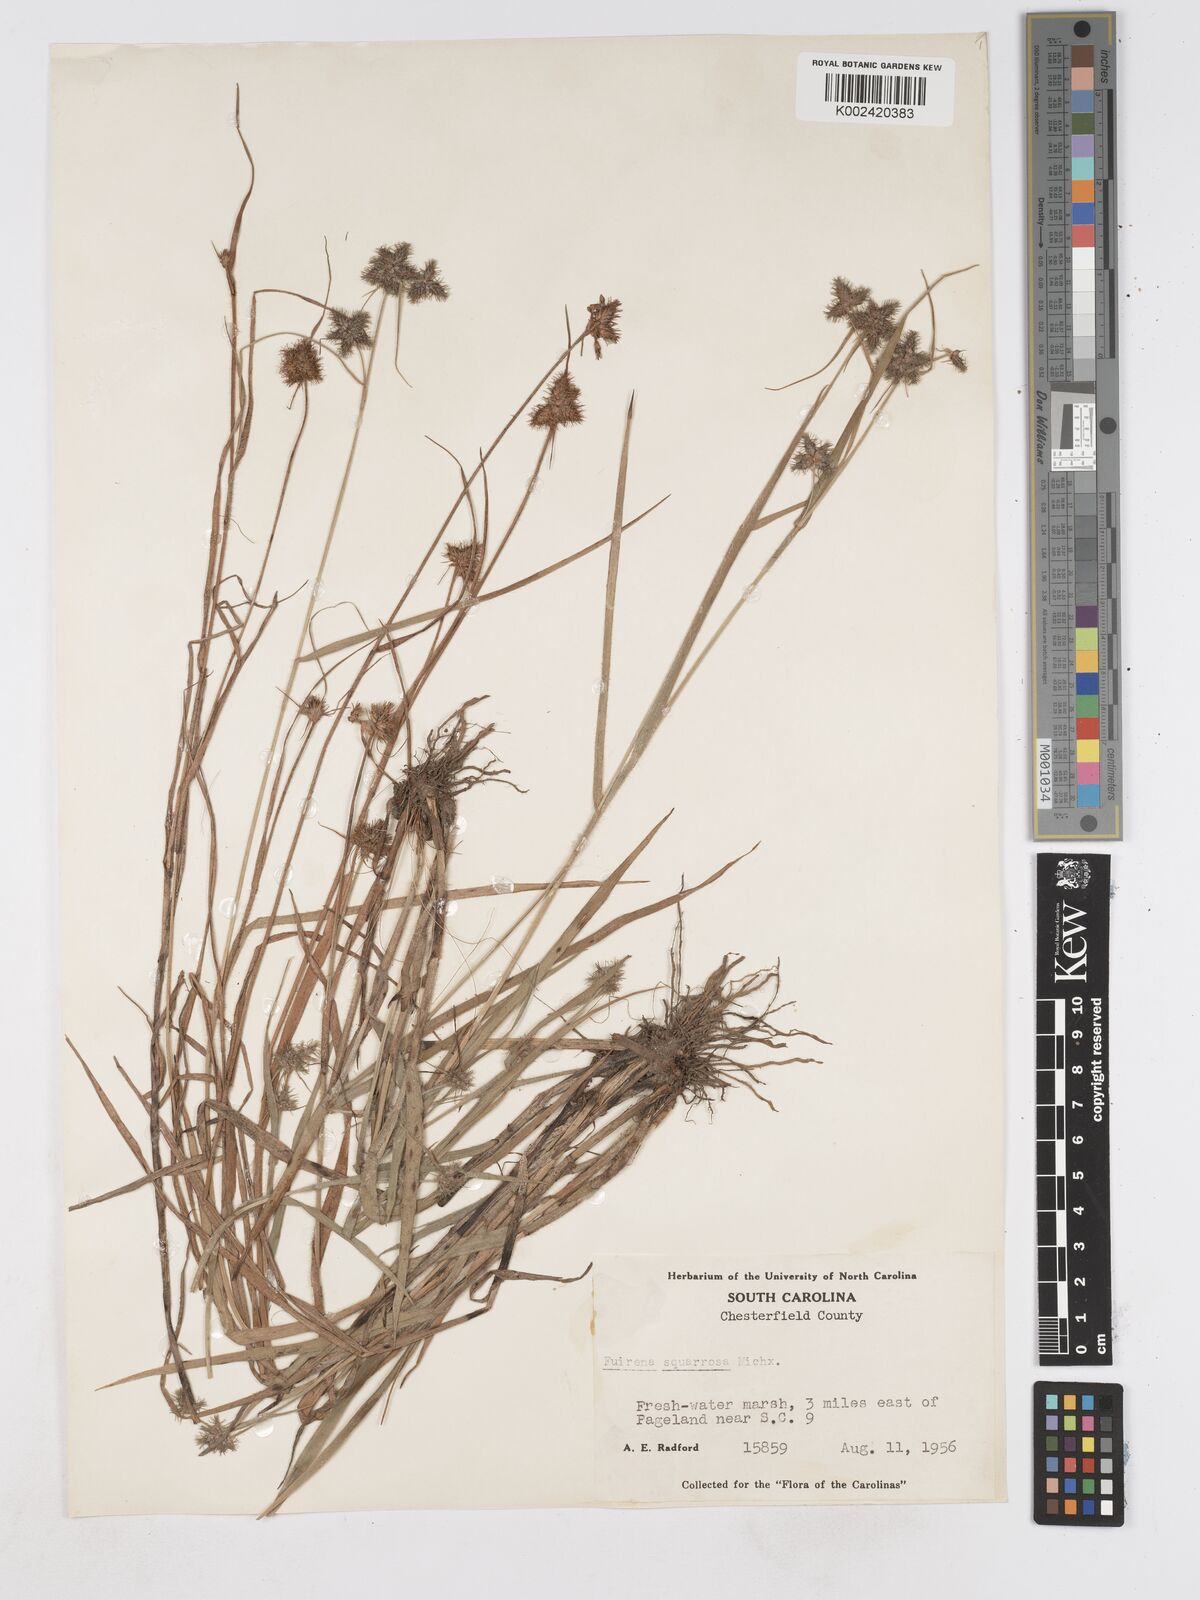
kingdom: Plantae
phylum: Tracheophyta
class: Liliopsida
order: Poales
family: Cyperaceae
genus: Fuirena
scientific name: Fuirena squarrosa
